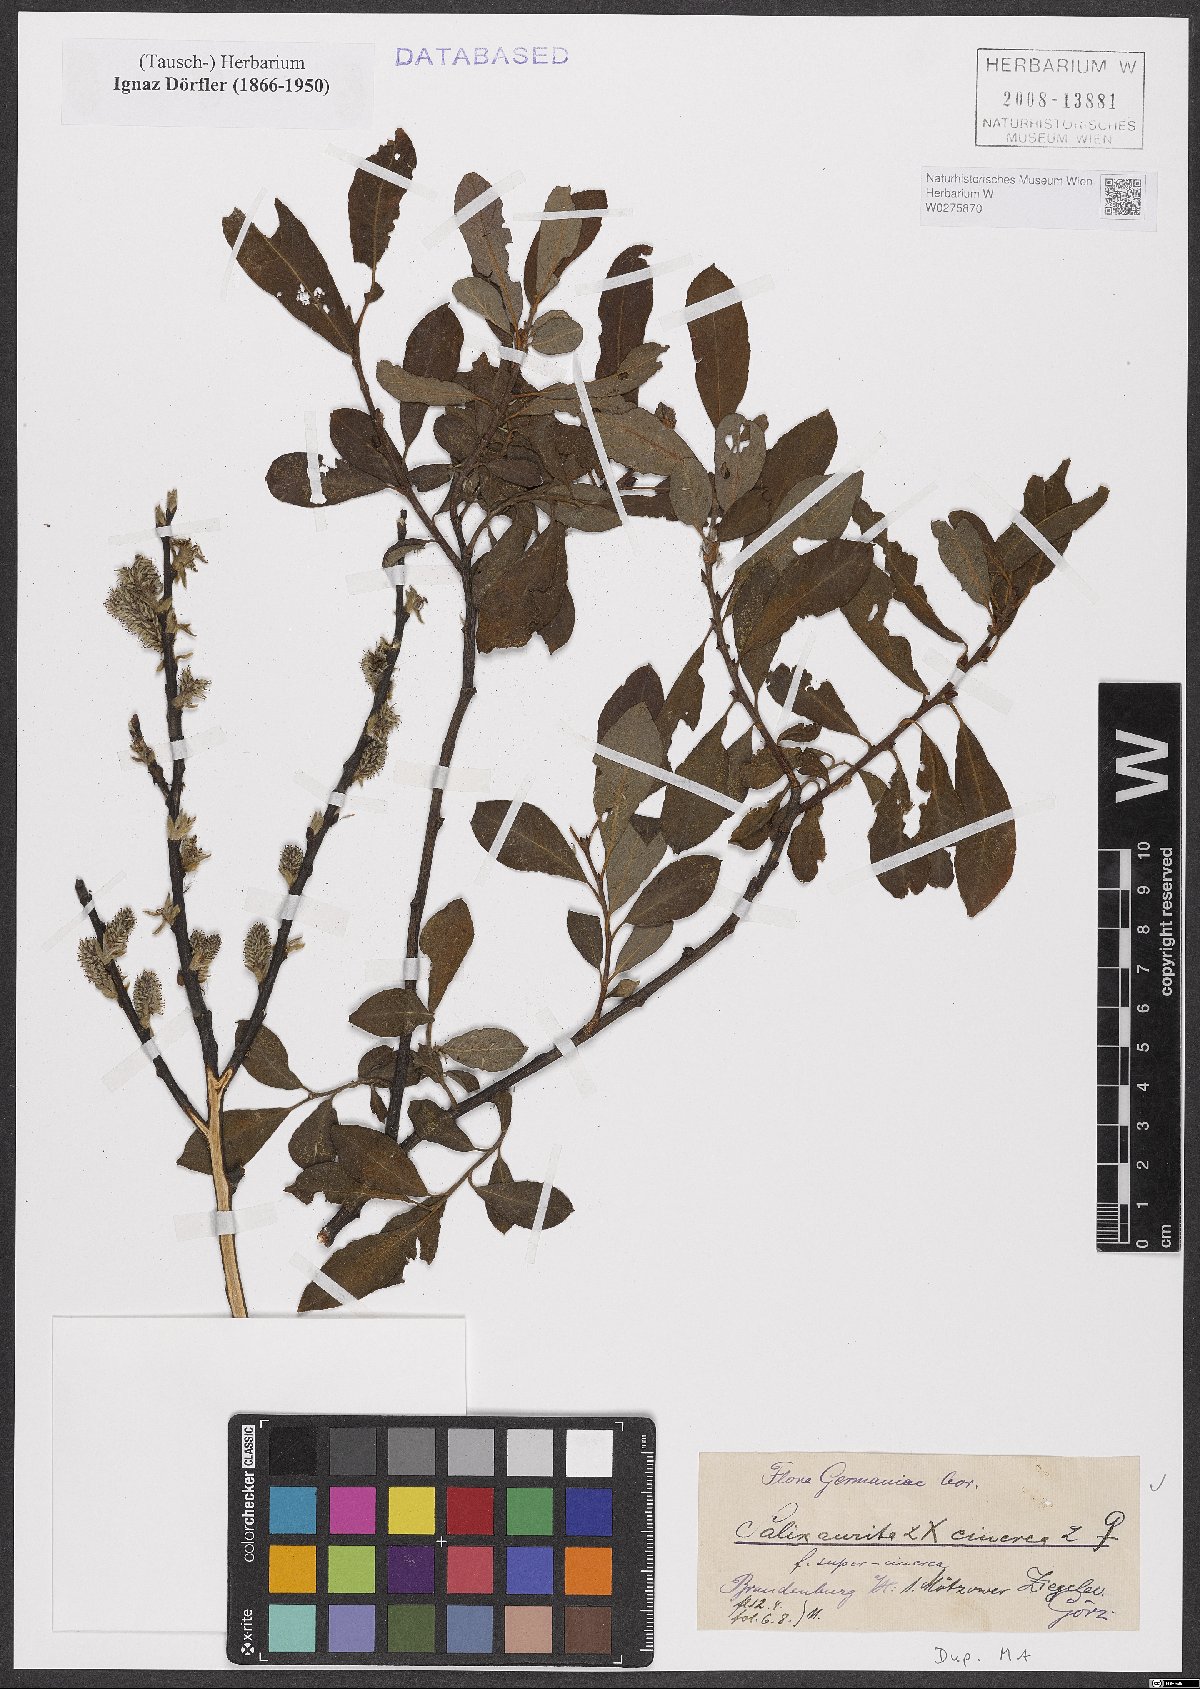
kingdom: Plantae
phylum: Tracheophyta
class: Magnoliopsida
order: Malpighiales
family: Salicaceae
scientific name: Salicaceae
